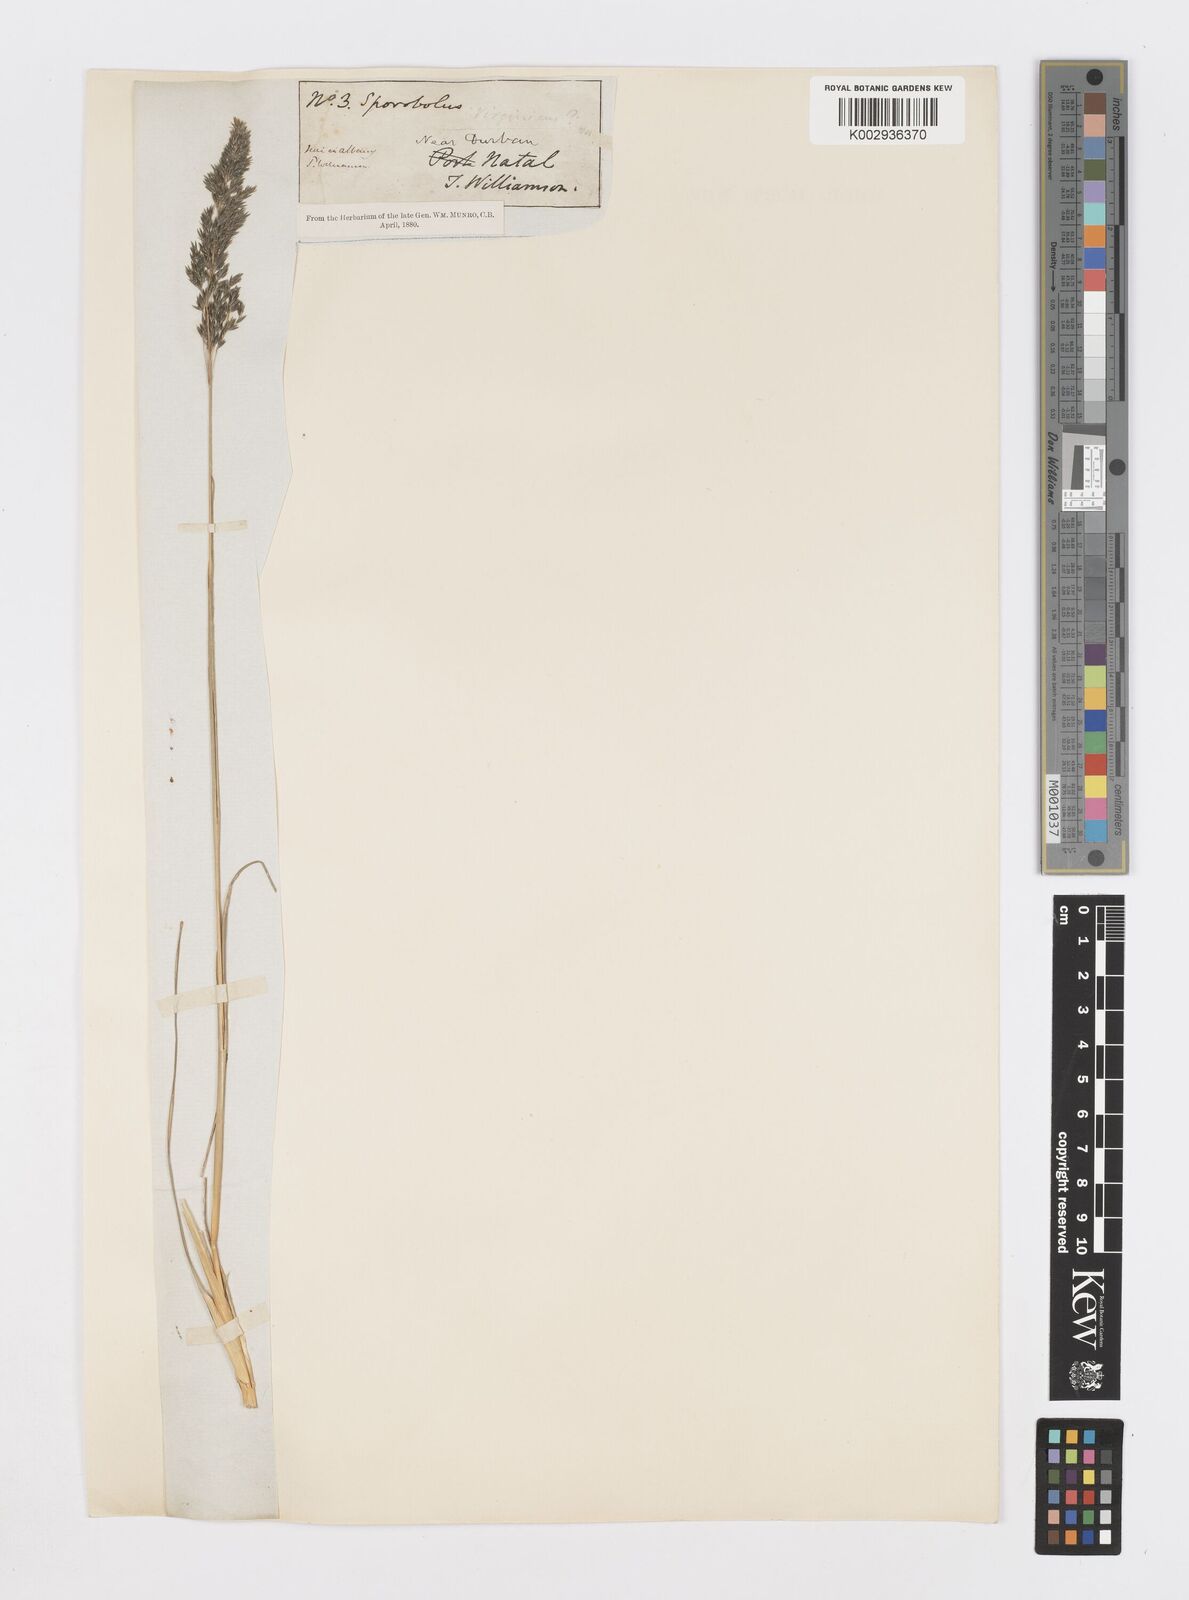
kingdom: Plantae
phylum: Tracheophyta
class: Liliopsida
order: Poales
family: Poaceae
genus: Sporobolus
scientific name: Sporobolus centrifugus
